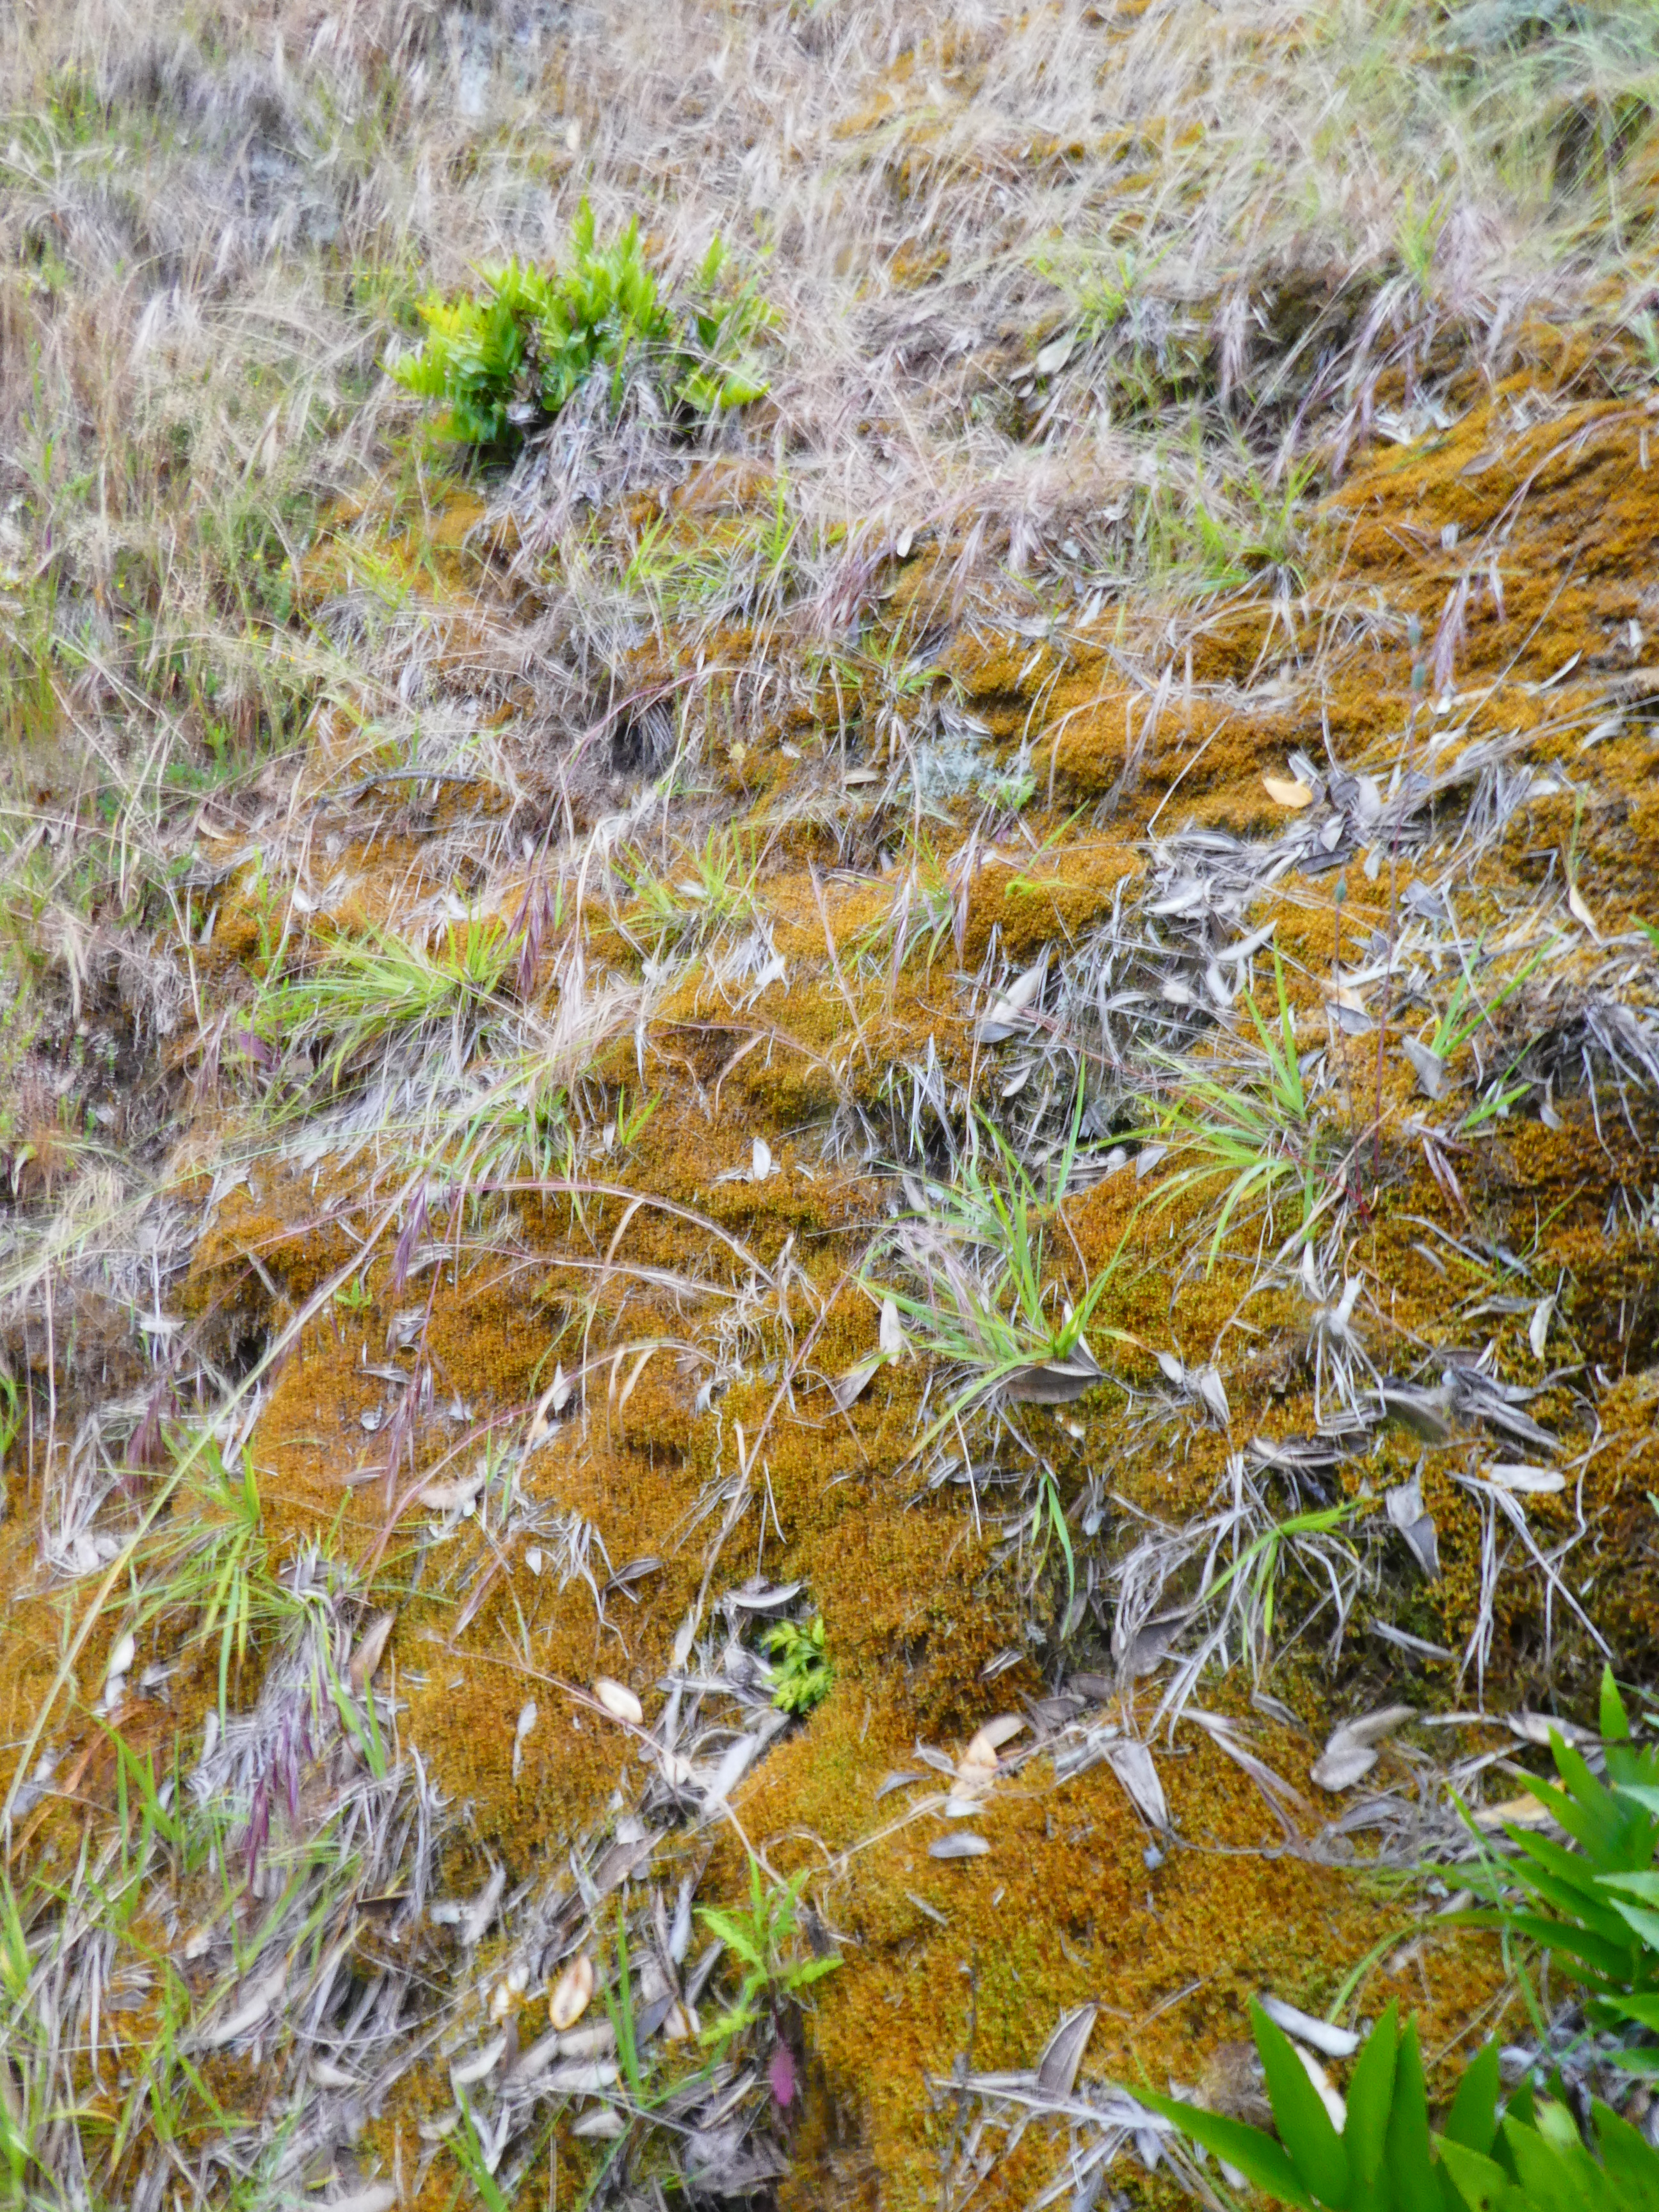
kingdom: Plantae
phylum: Bryophyta
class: Bryopsida
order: Hypnales
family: Hypnaceae
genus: Hypnum
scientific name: Hypnum cupressiforme
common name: Cypress-leaved plait-moss
